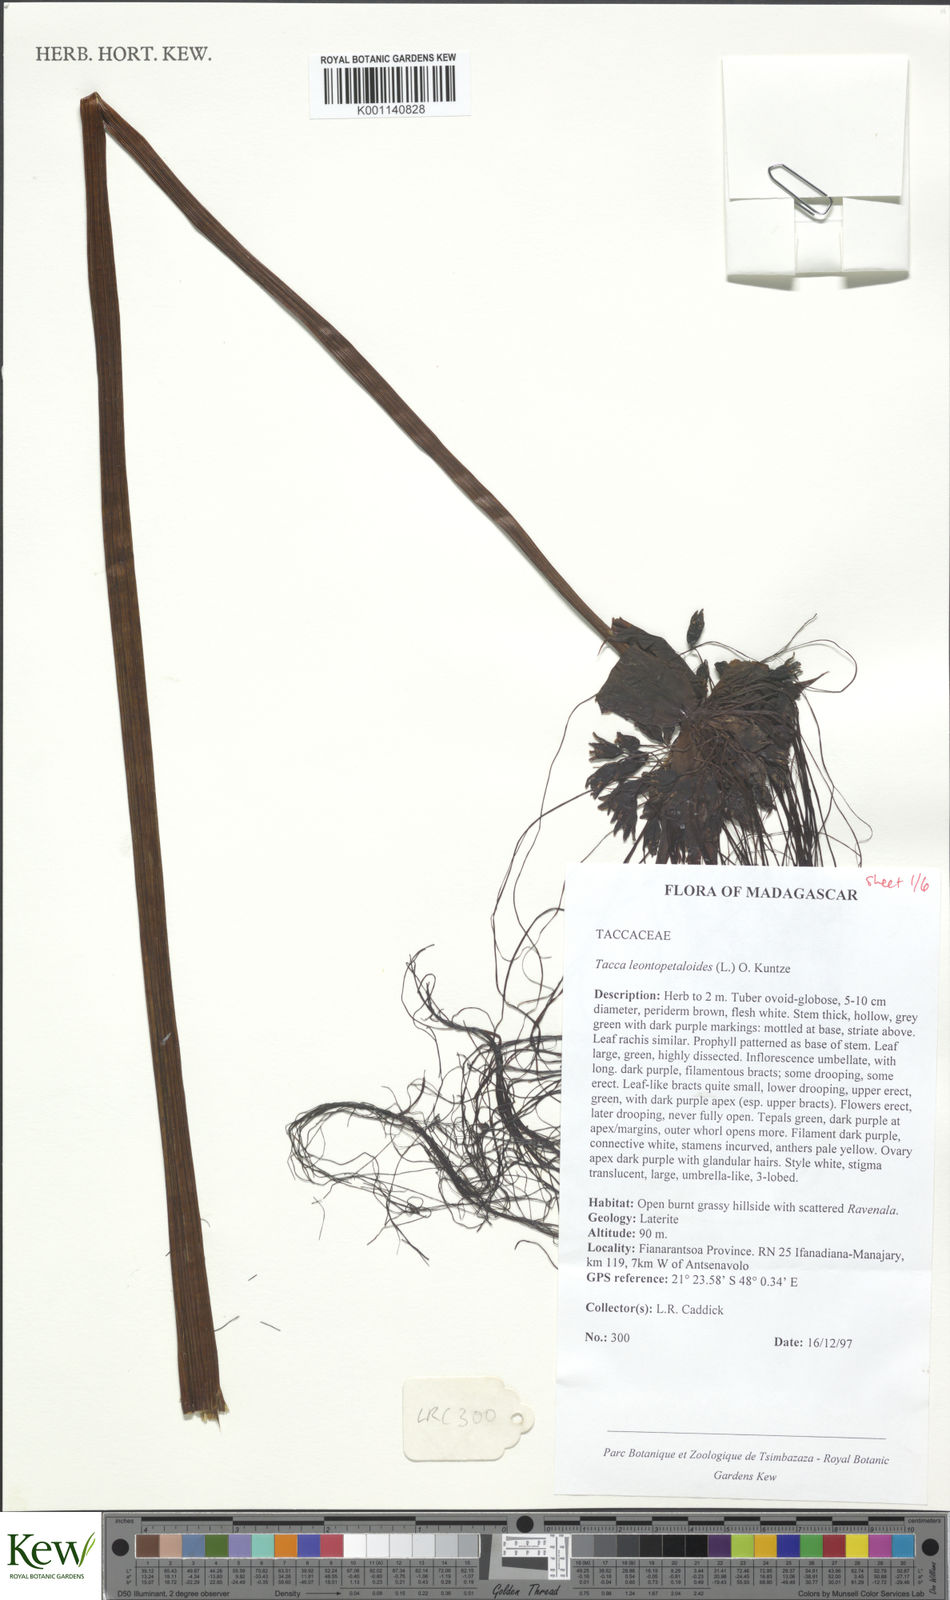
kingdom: Plantae
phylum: Tracheophyta
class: Liliopsida
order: Dioscoreales
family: Dioscoreaceae
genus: Tacca
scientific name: Tacca leontopetaloides
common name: Arrowroot
